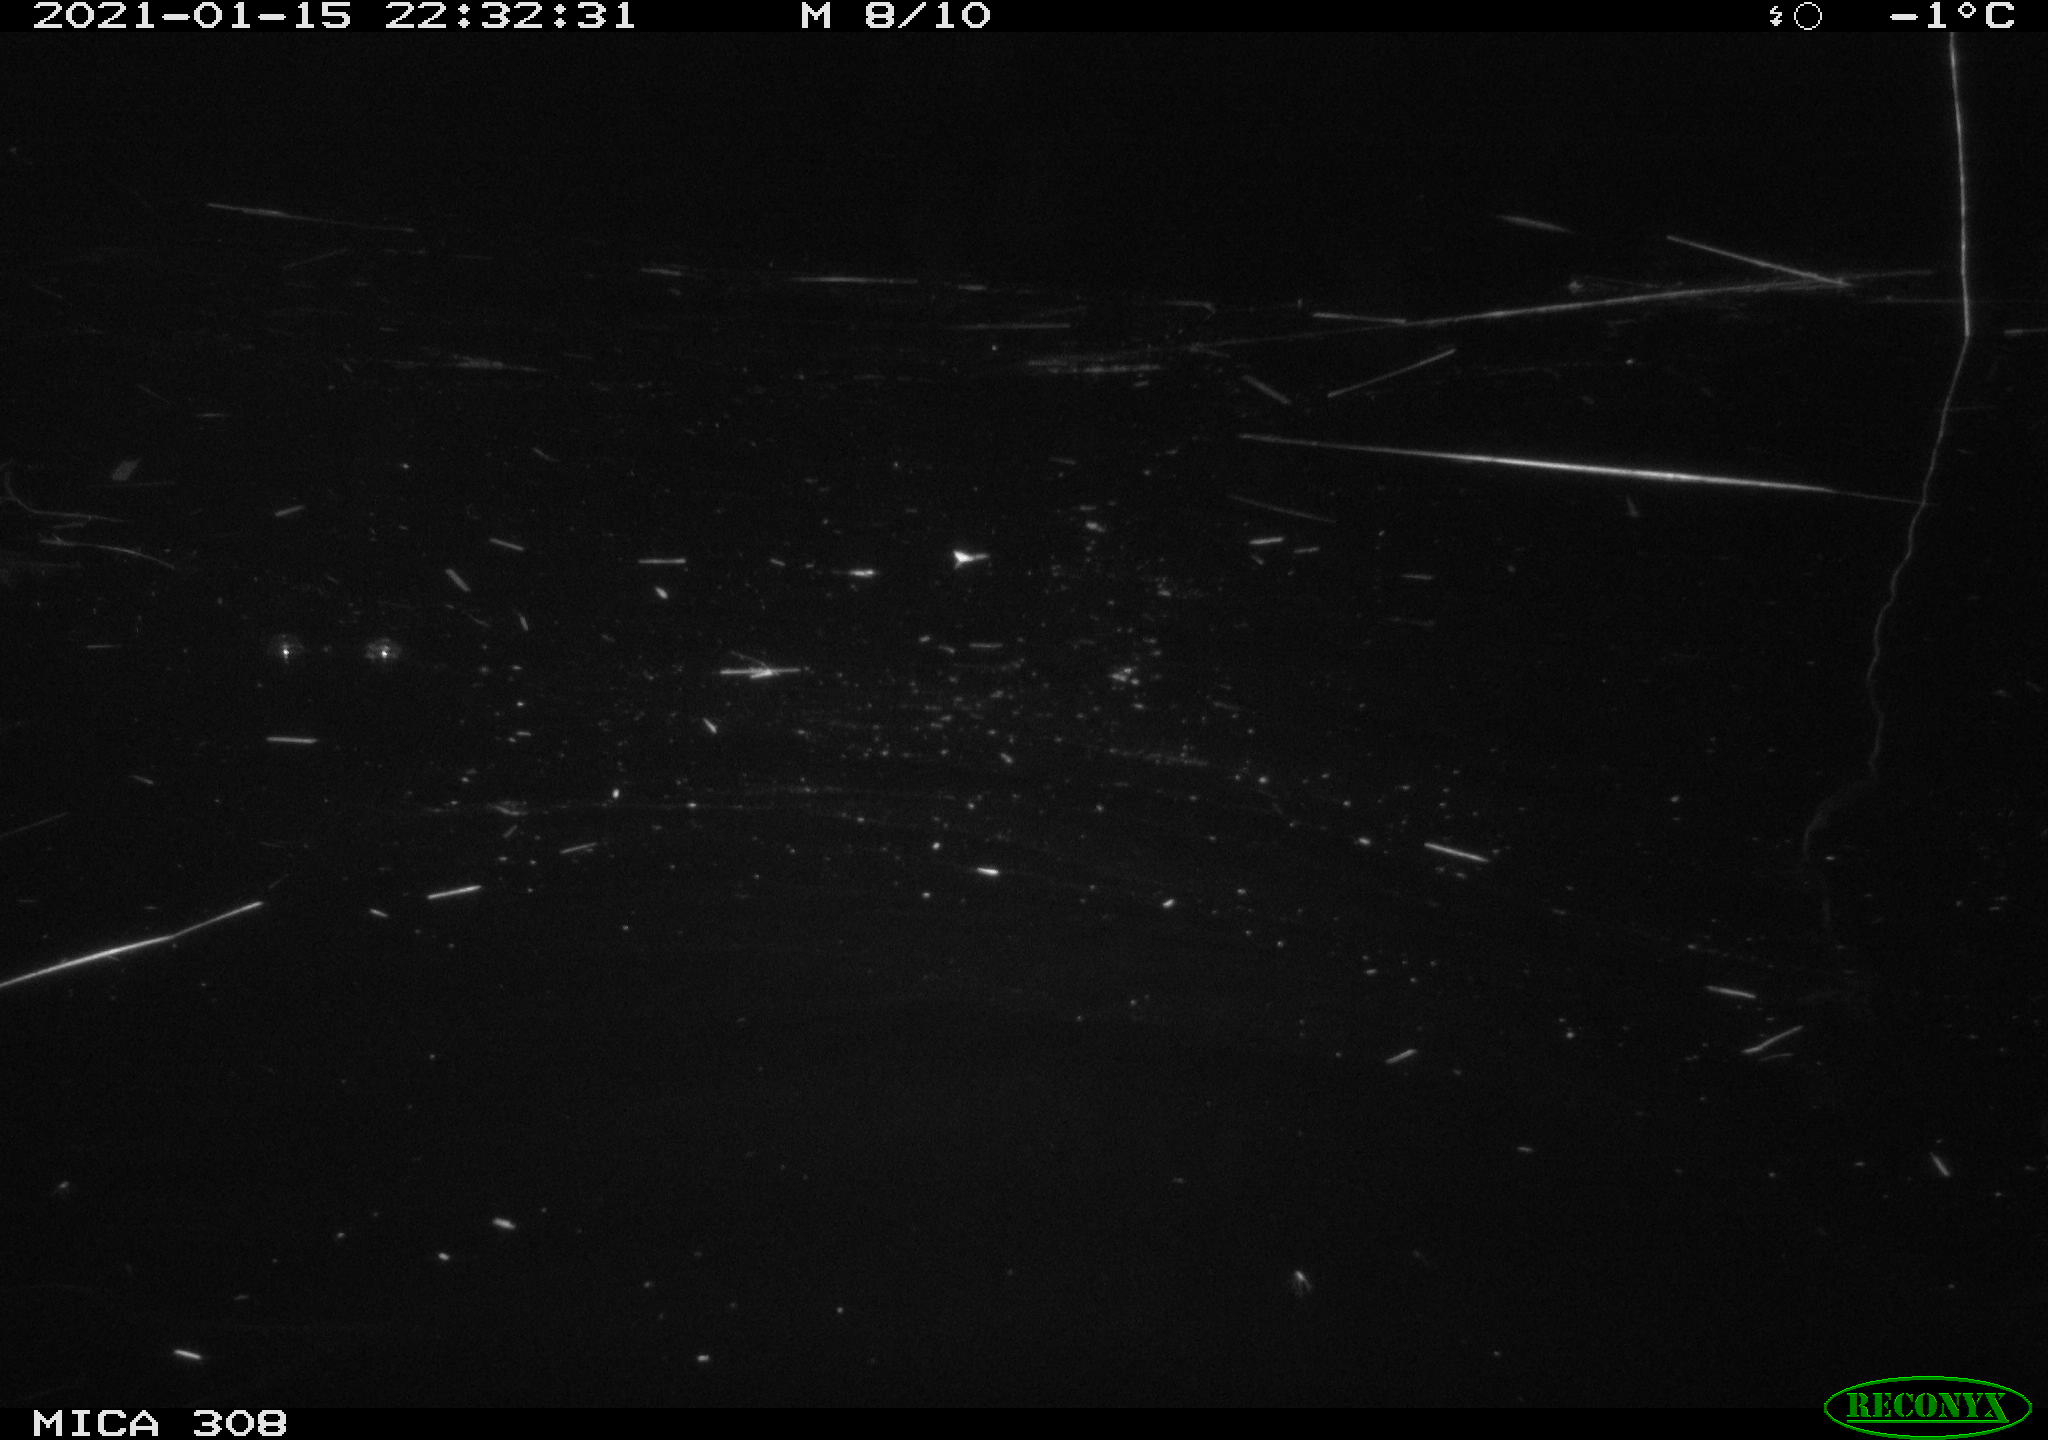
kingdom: Animalia
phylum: Chordata
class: Mammalia
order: Rodentia
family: Cricetidae
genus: Ondatra
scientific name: Ondatra zibethicus
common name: Muskrat
